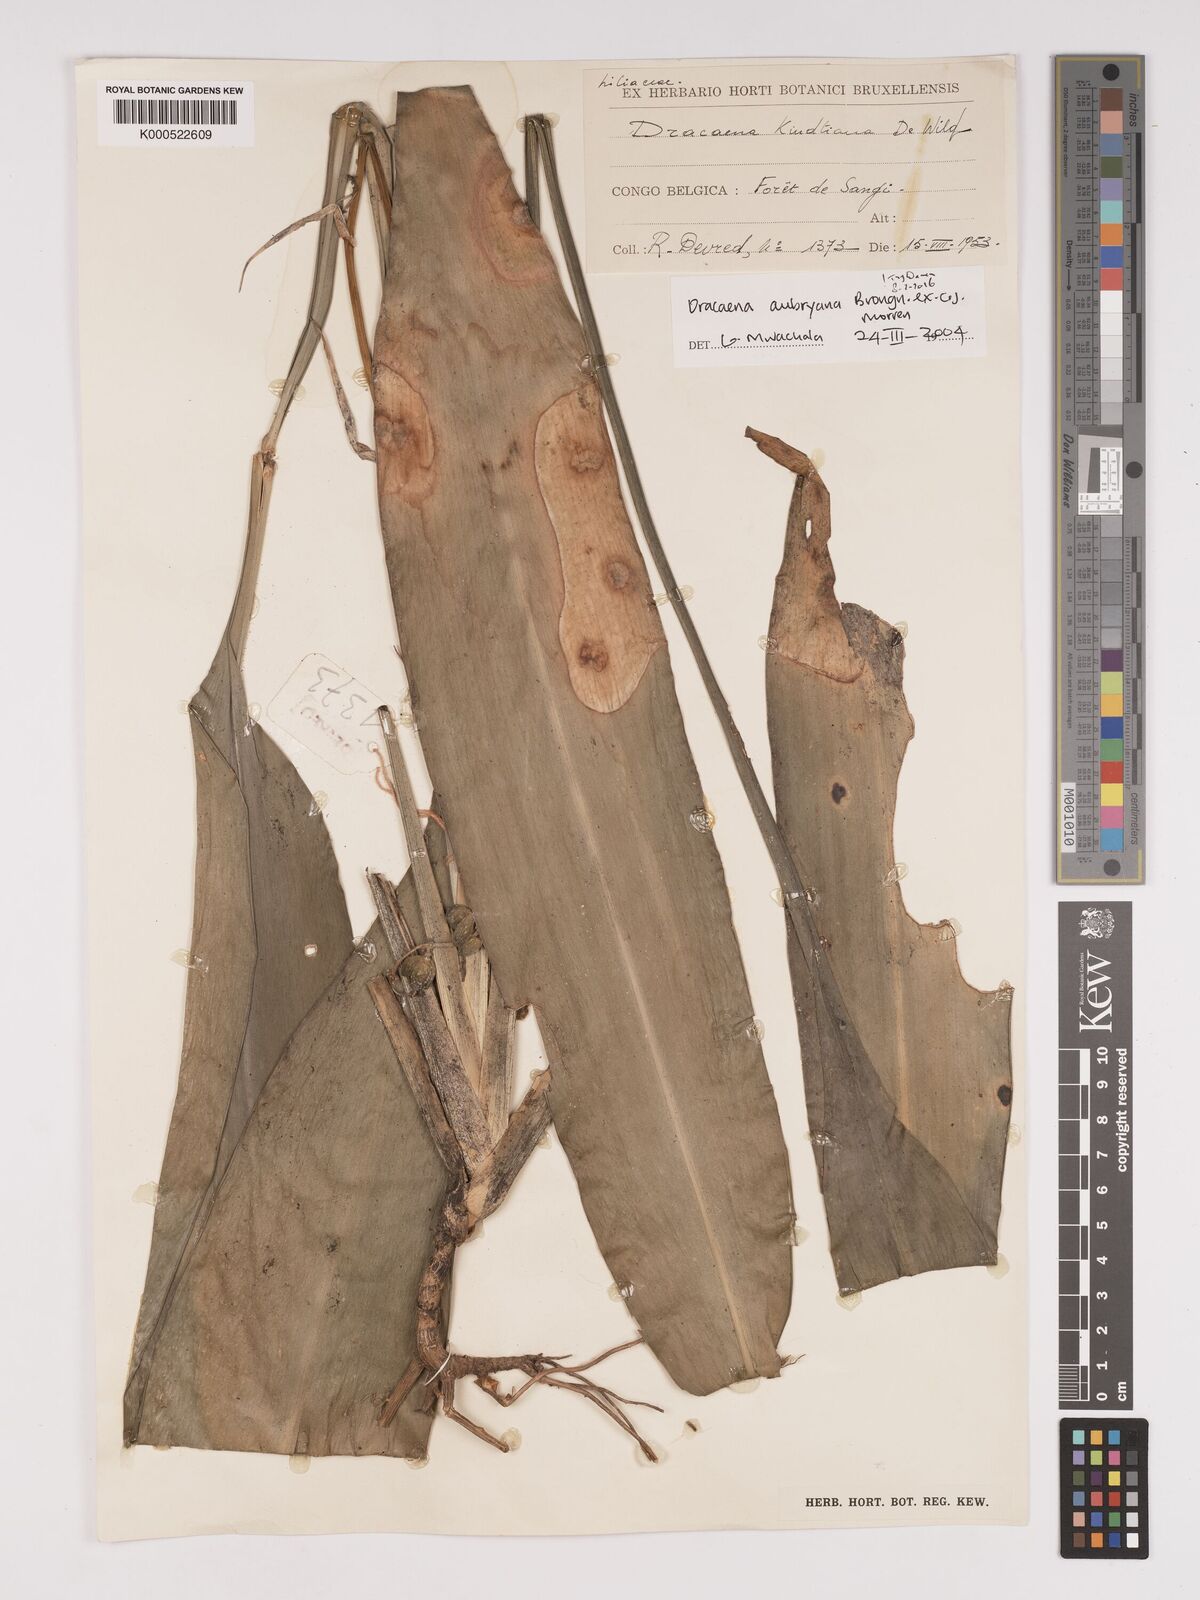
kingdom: Plantae
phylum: Tracheophyta
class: Liliopsida
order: Asparagales
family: Asparagaceae
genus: Dracaena
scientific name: Dracaena aubryana
